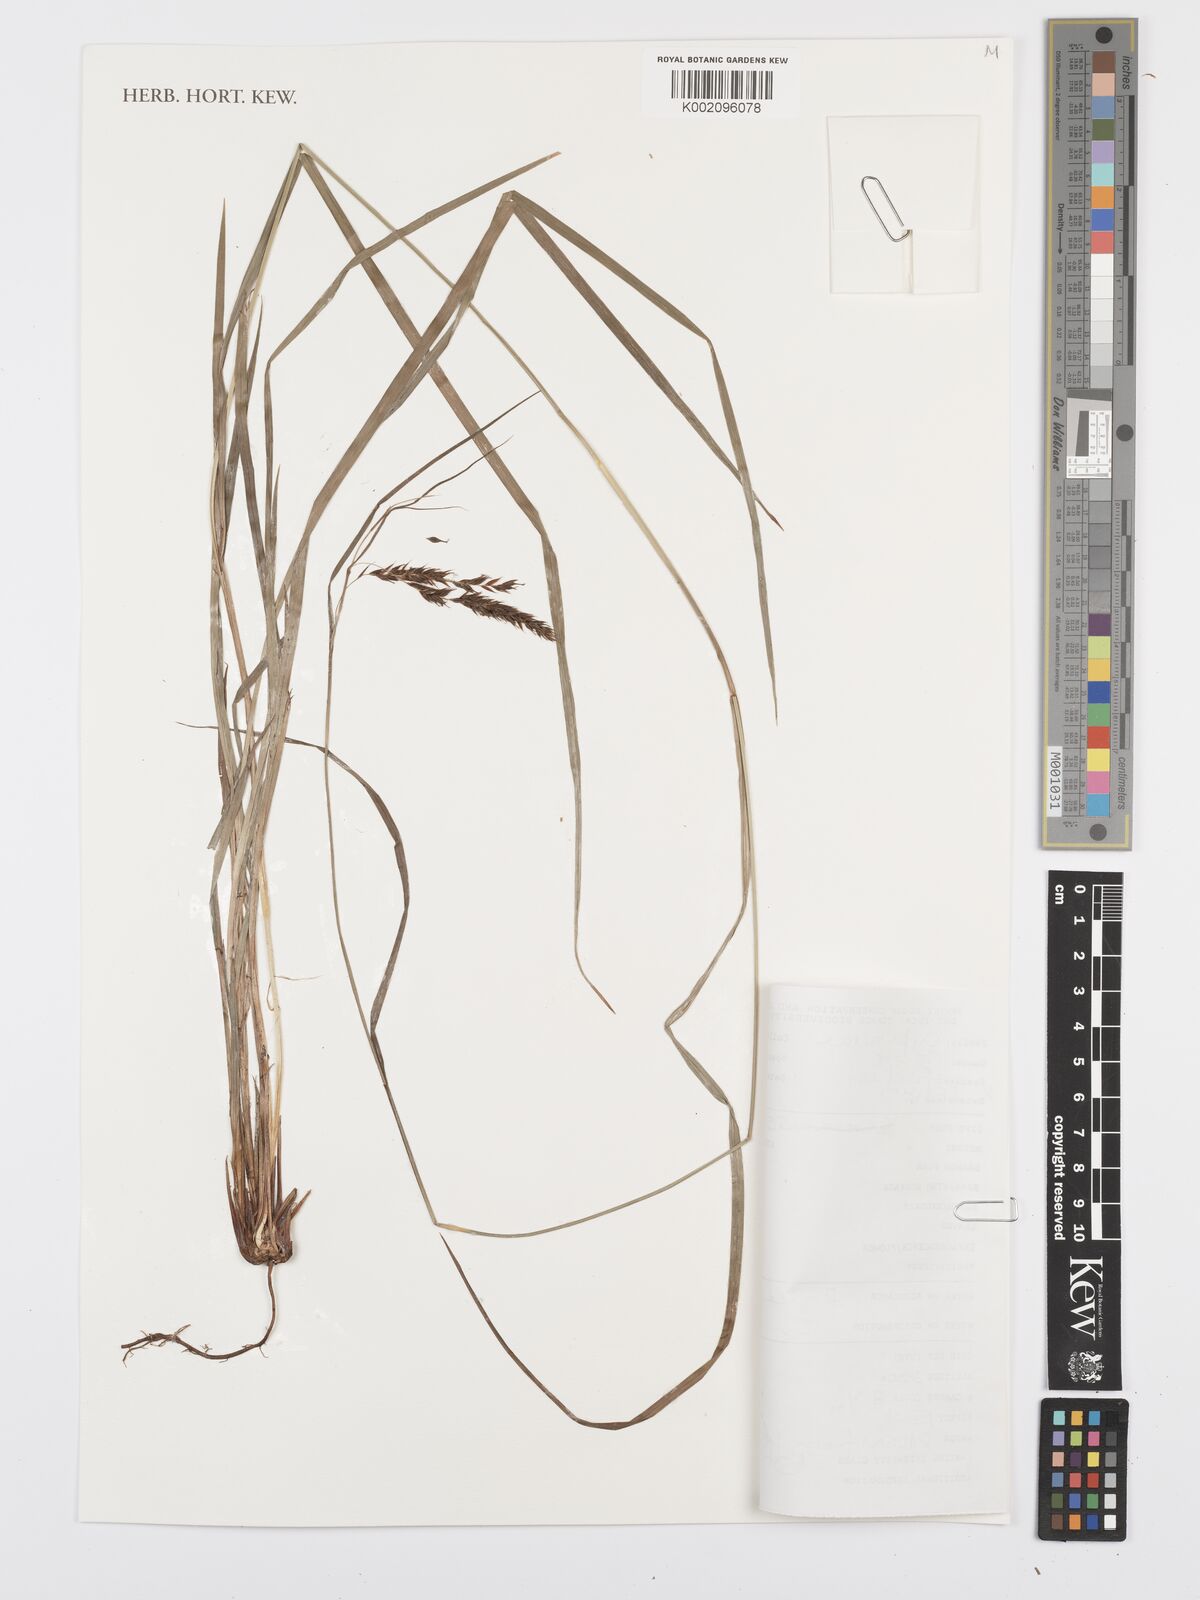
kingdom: Plantae
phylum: Tracheophyta
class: Liliopsida
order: Poales
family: Cyperaceae
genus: Carex
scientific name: Carex fischeri
